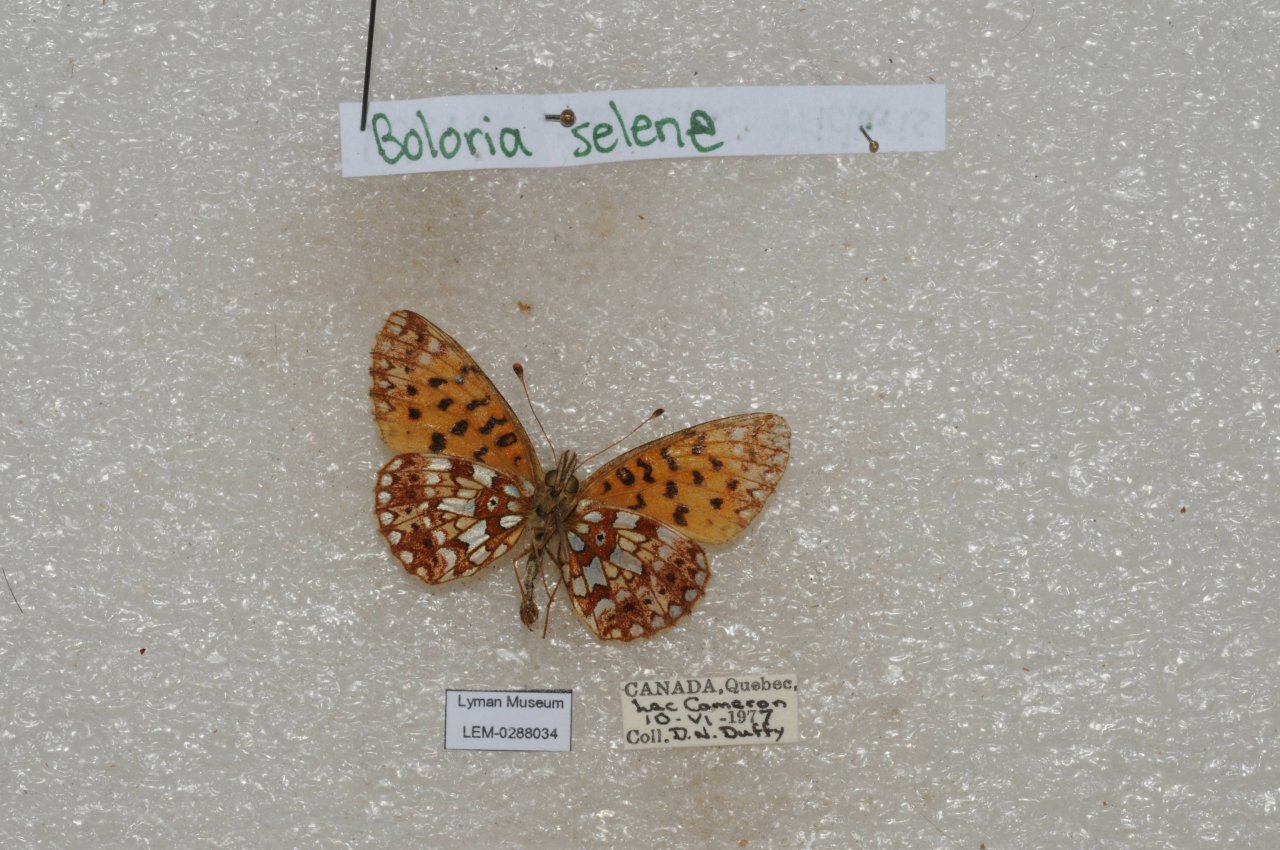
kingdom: Animalia
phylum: Arthropoda
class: Insecta
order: Lepidoptera
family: Nymphalidae
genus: Boloria
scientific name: Boloria selene
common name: Silver-bordered Fritillary
